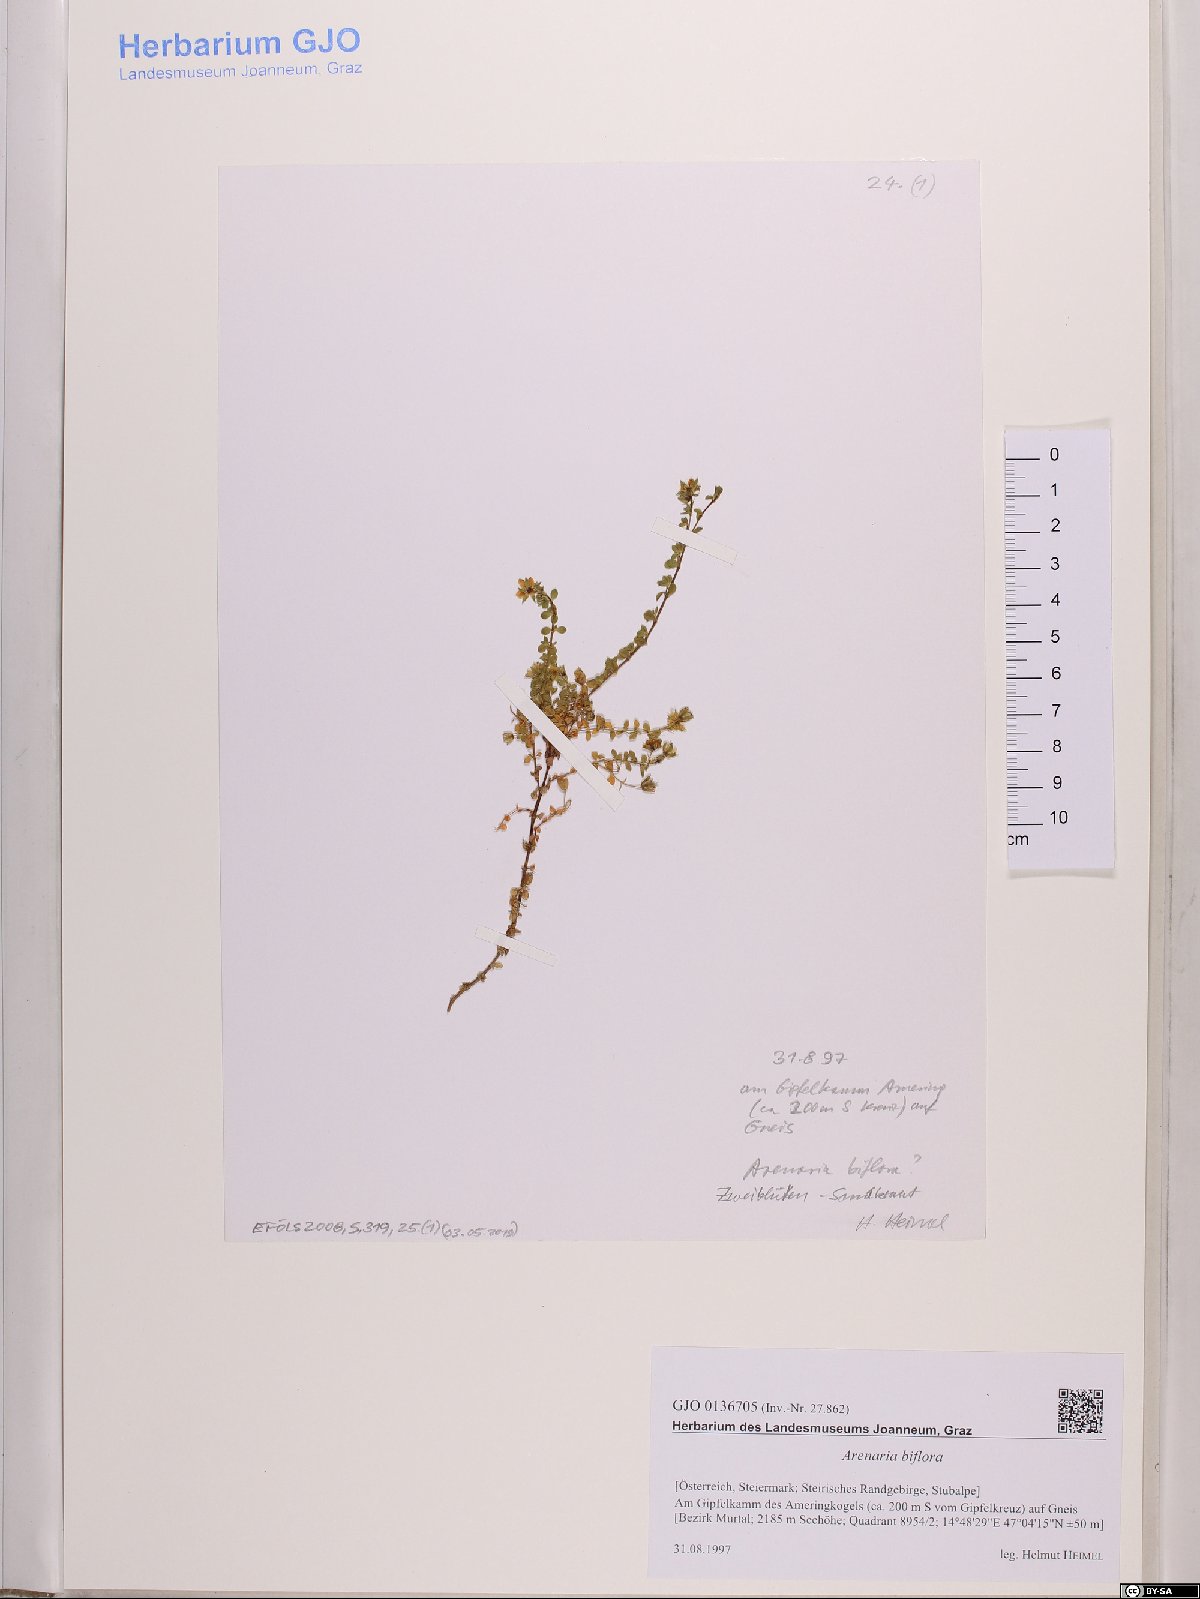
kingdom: Plantae
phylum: Tracheophyta
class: Magnoliopsida
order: Caryophyllales
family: Caryophyllaceae
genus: Arenaria
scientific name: Arenaria biflora
